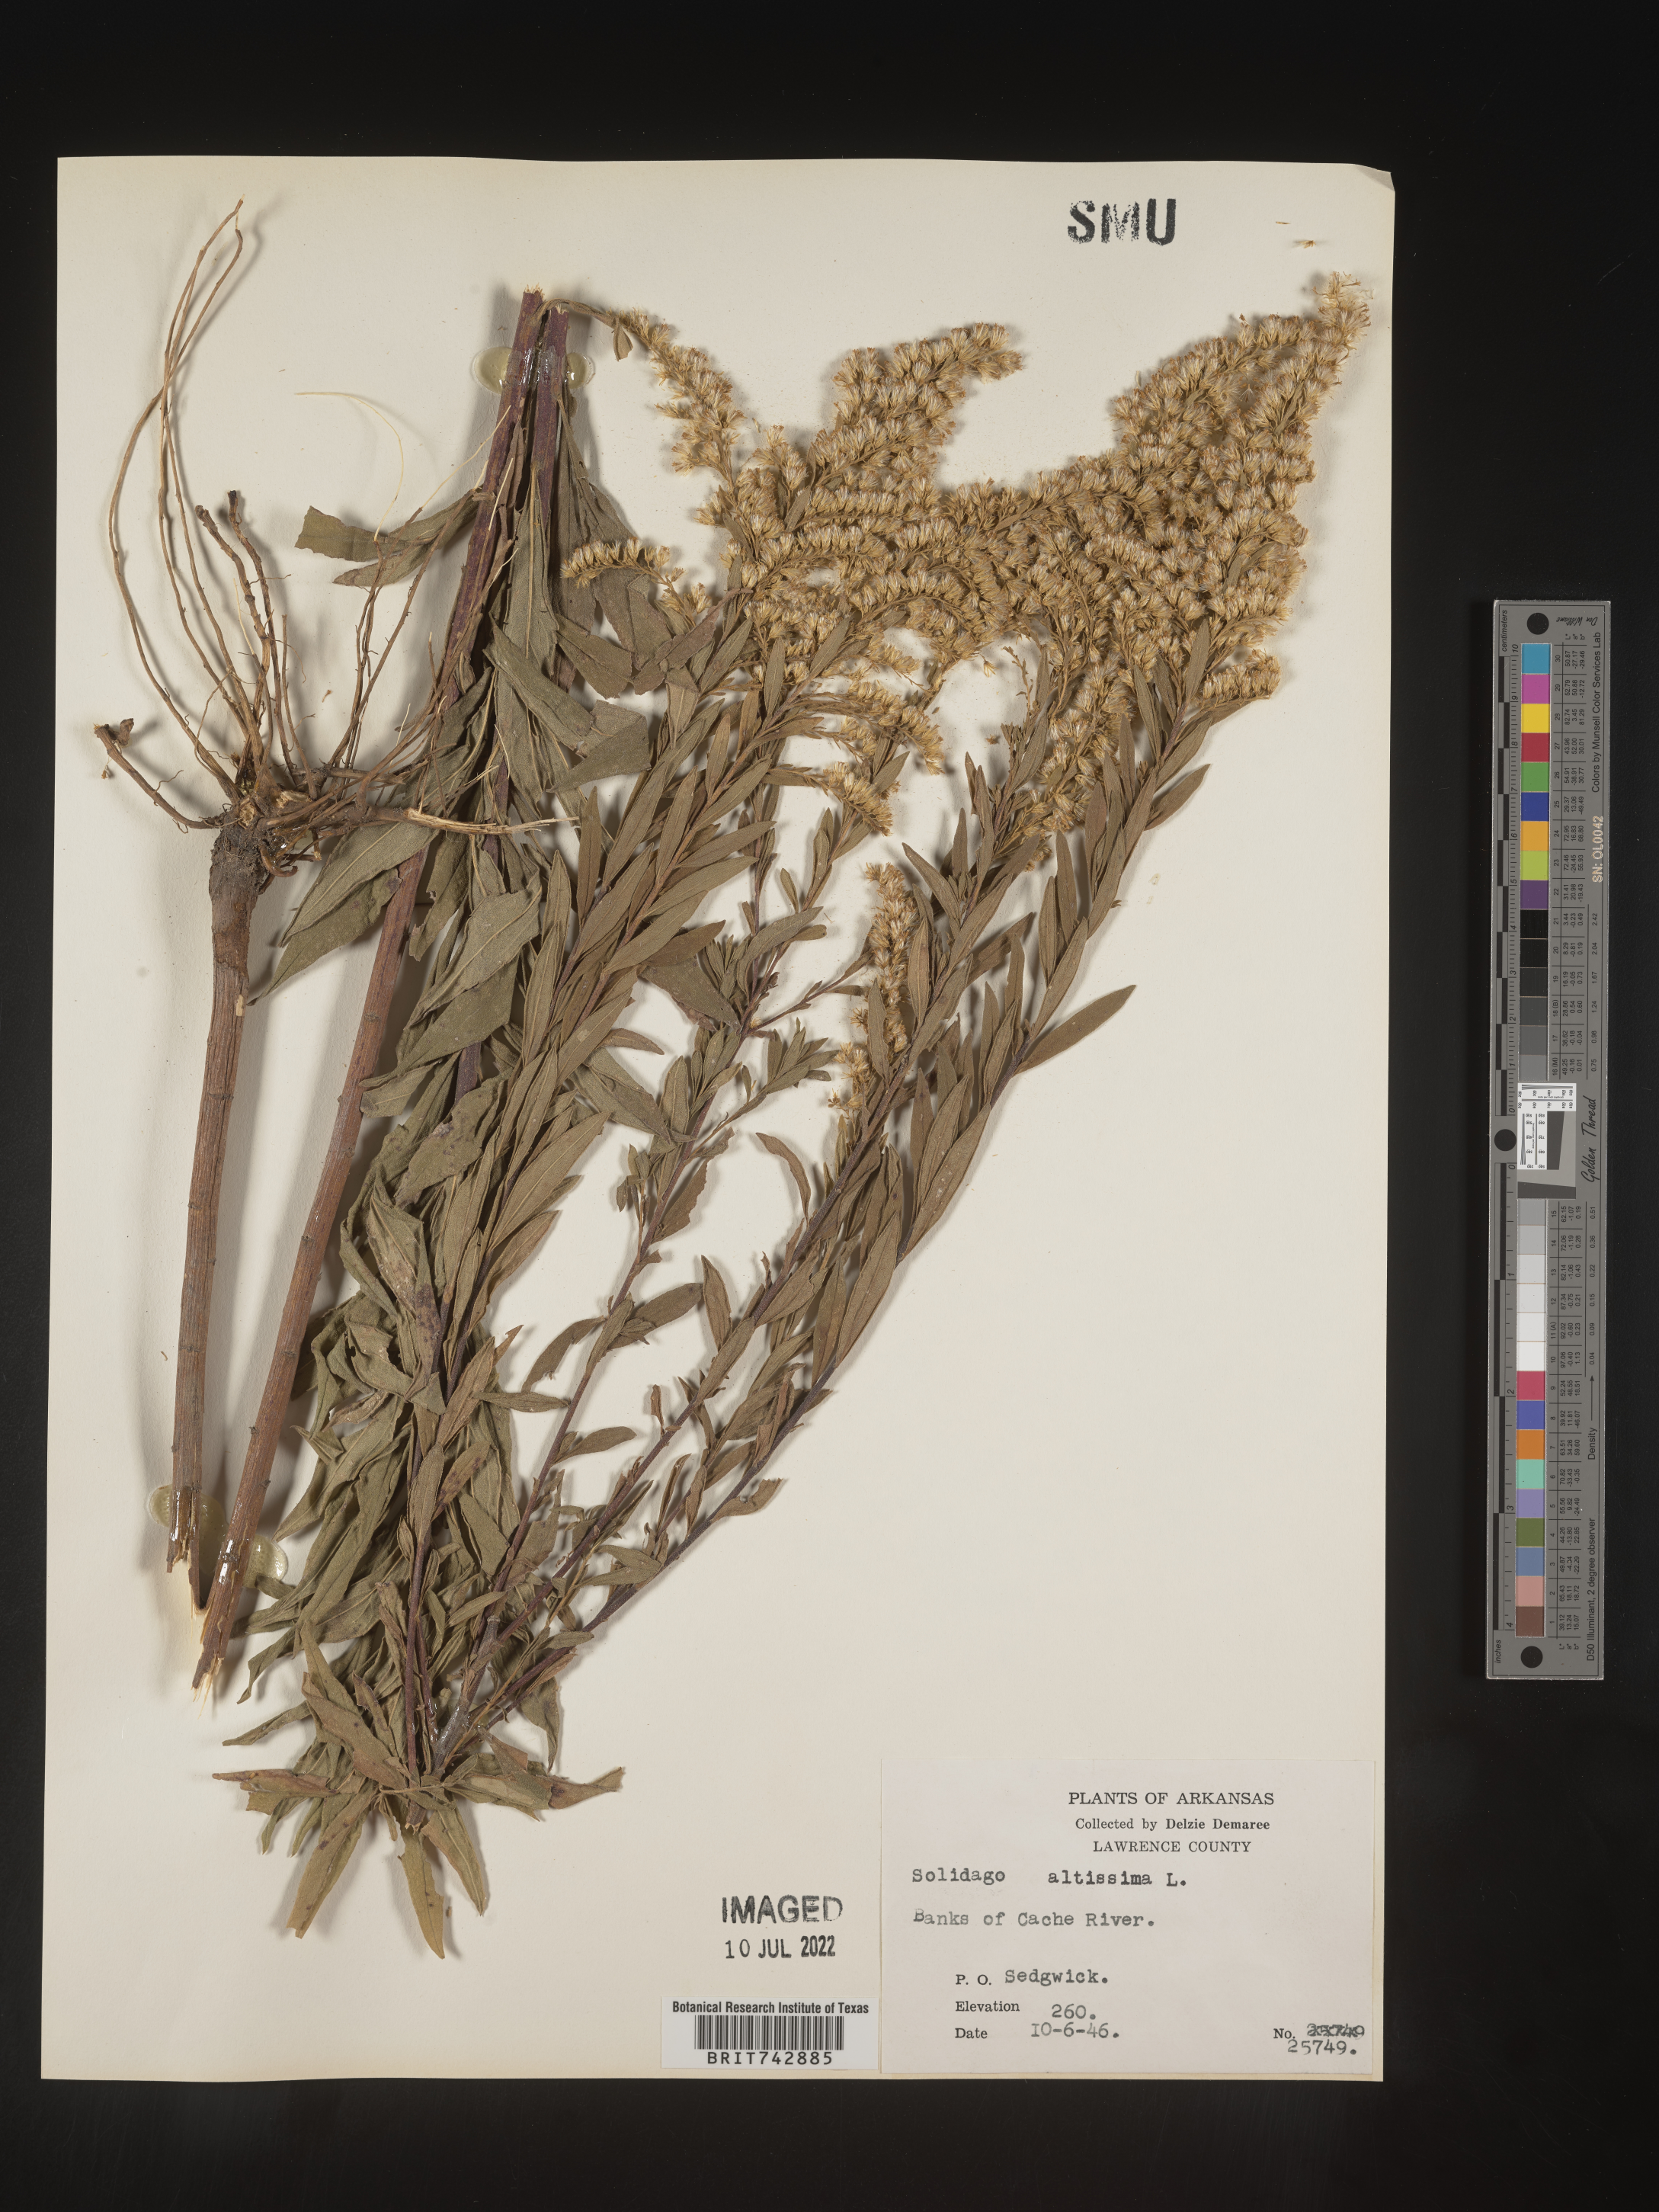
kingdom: Plantae
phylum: Tracheophyta
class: Magnoliopsida
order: Asterales
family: Asteraceae
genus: Solidago
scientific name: Solidago altissima
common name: Late goldenrod
